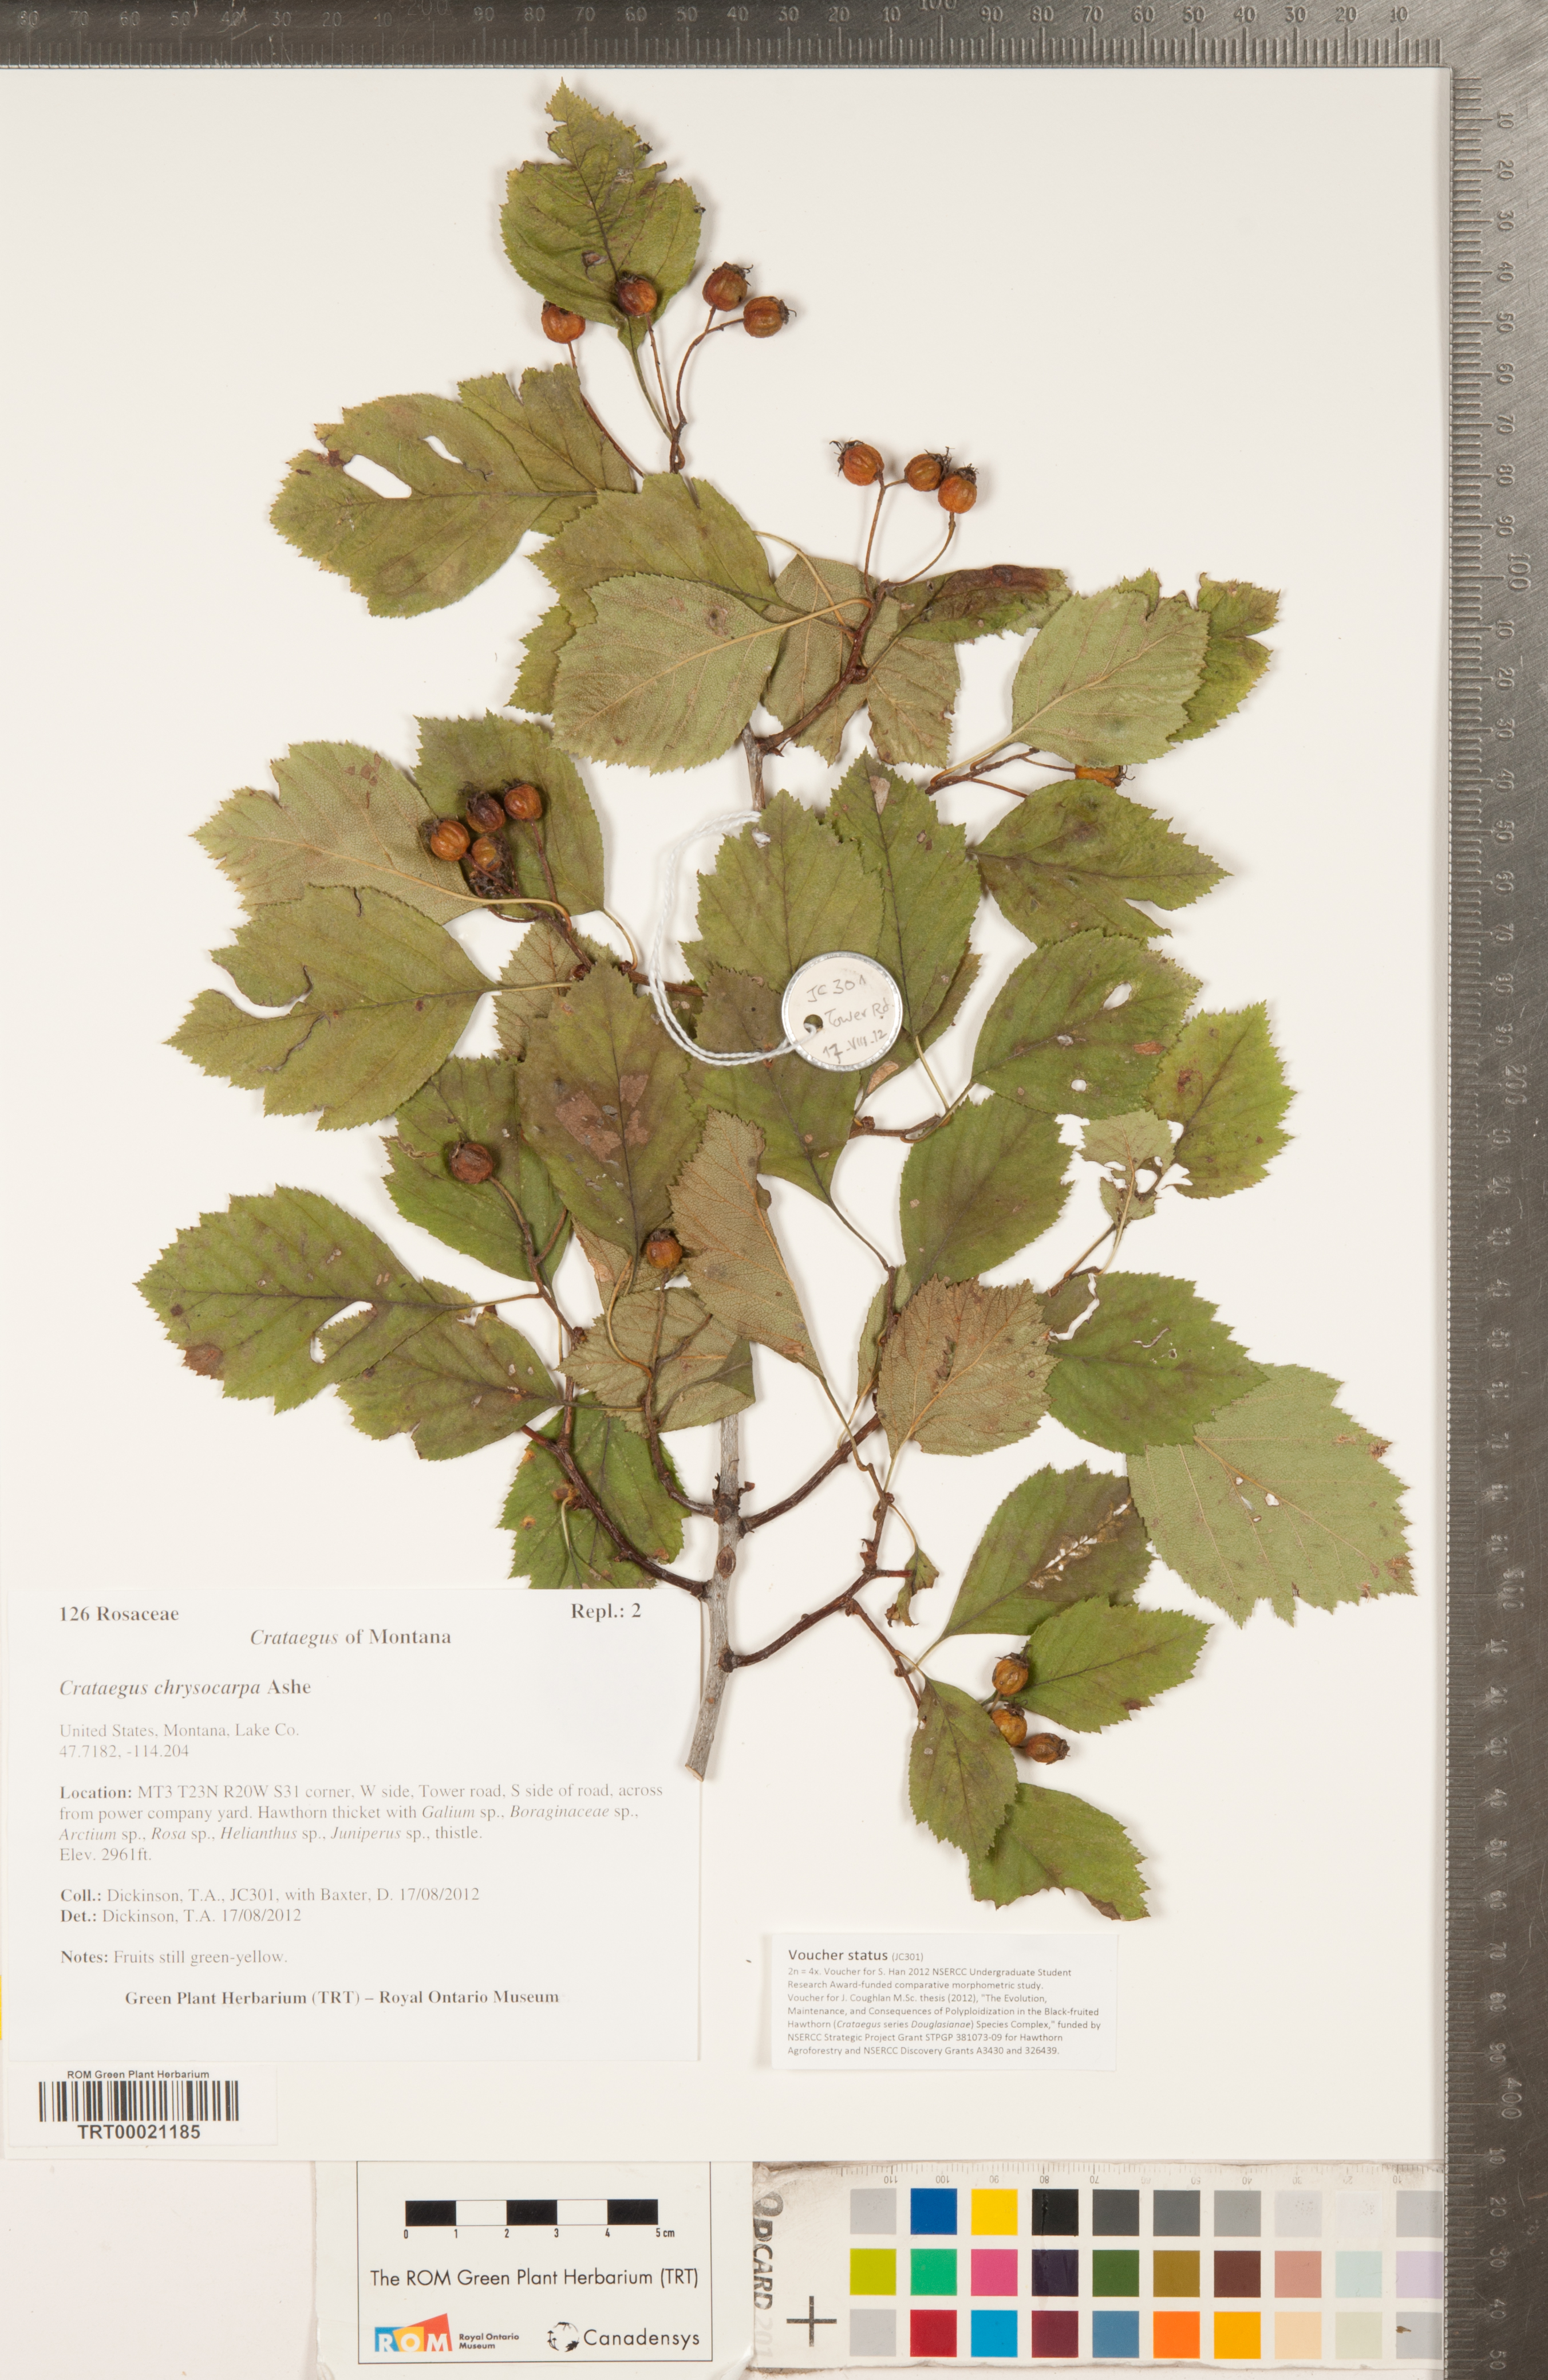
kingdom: Plantae
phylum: Tracheophyta
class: Magnoliopsida
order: Rosales
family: Rosaceae
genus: Crataegus
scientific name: Crataegus chrysocarpa
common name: Fire-berry hawthorn
